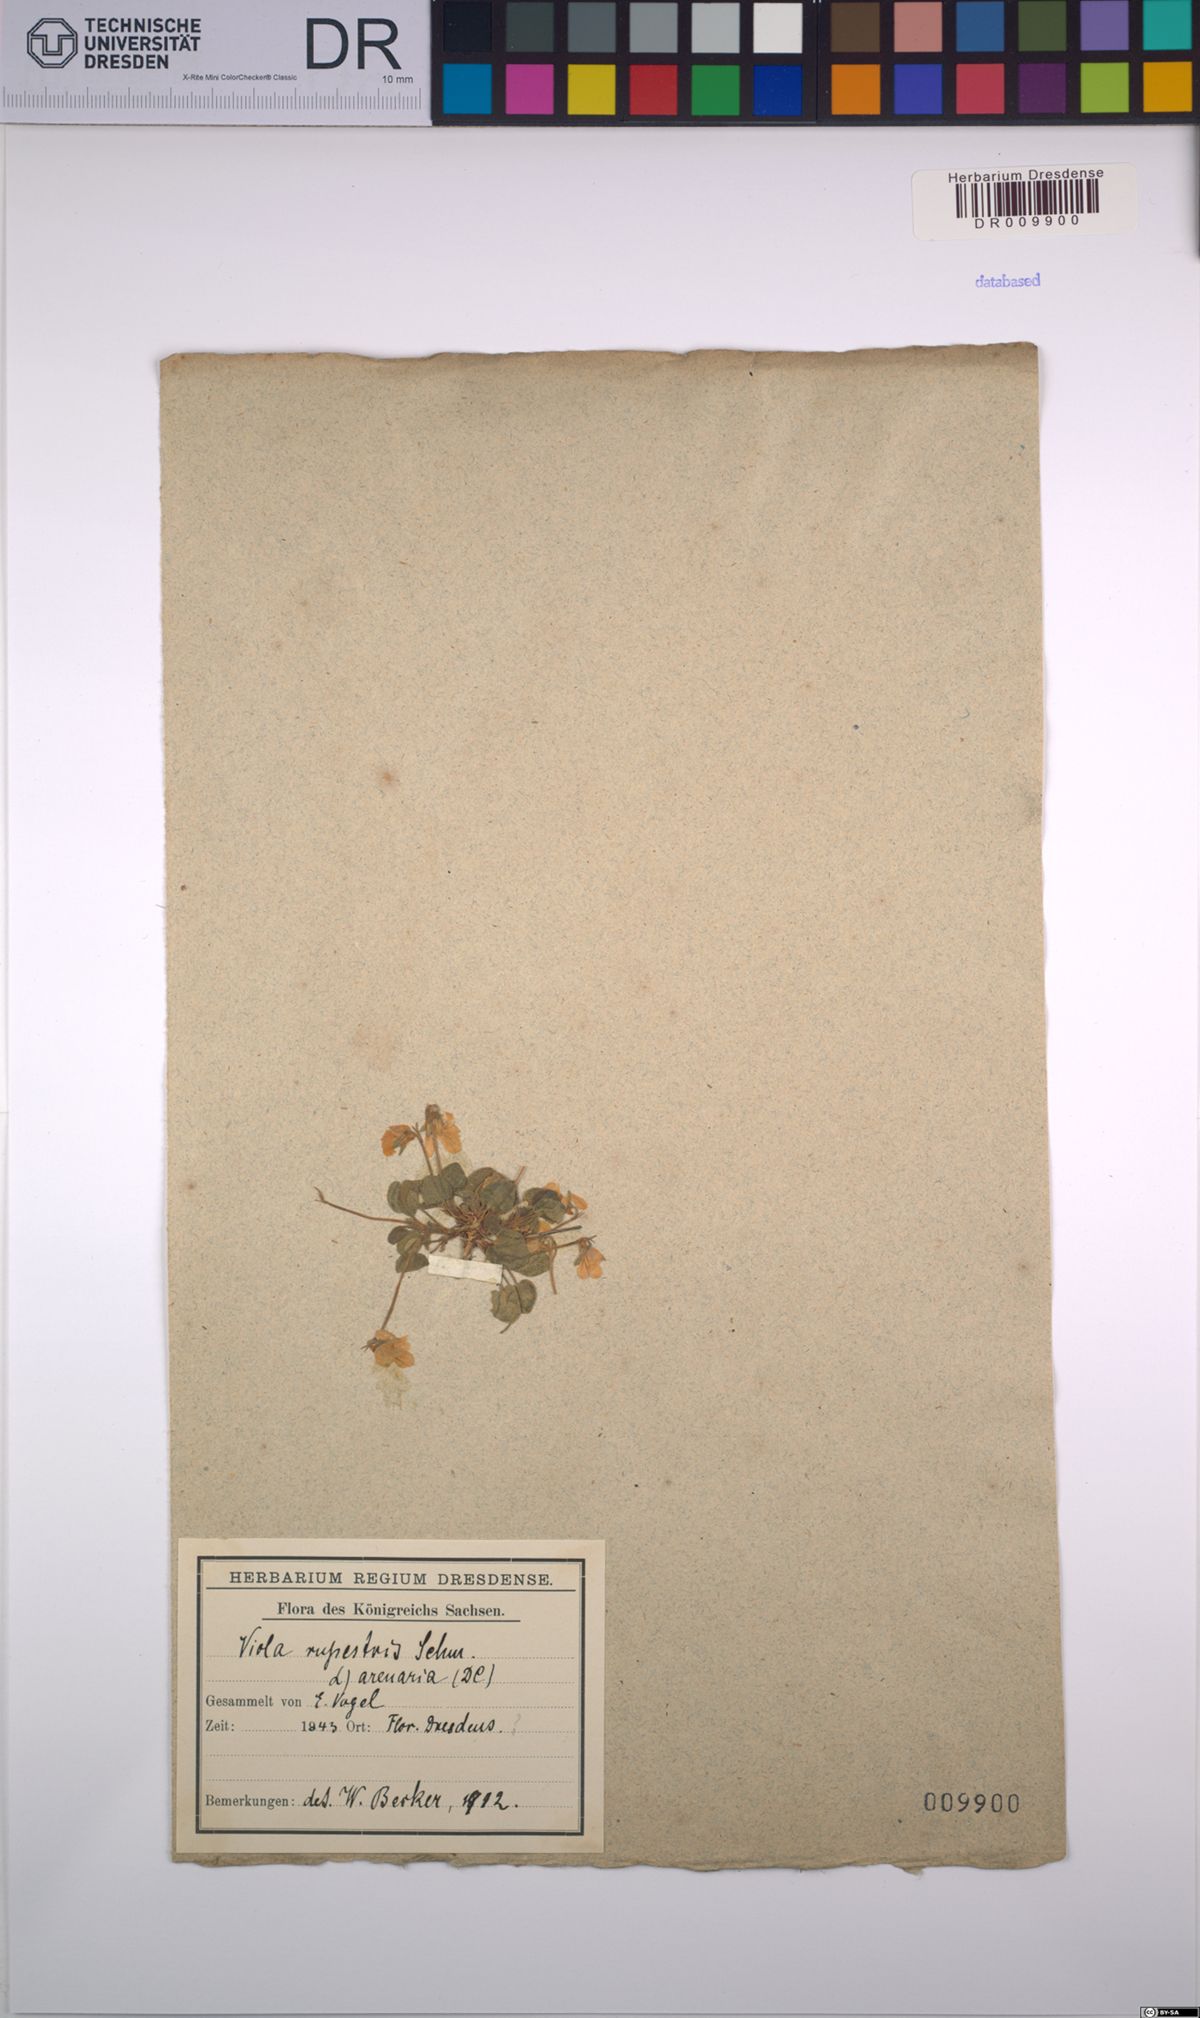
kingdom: Plantae
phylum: Tracheophyta
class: Magnoliopsida
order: Malpighiales
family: Violaceae
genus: Viola
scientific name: Viola rupestris
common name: Teesdale violet
